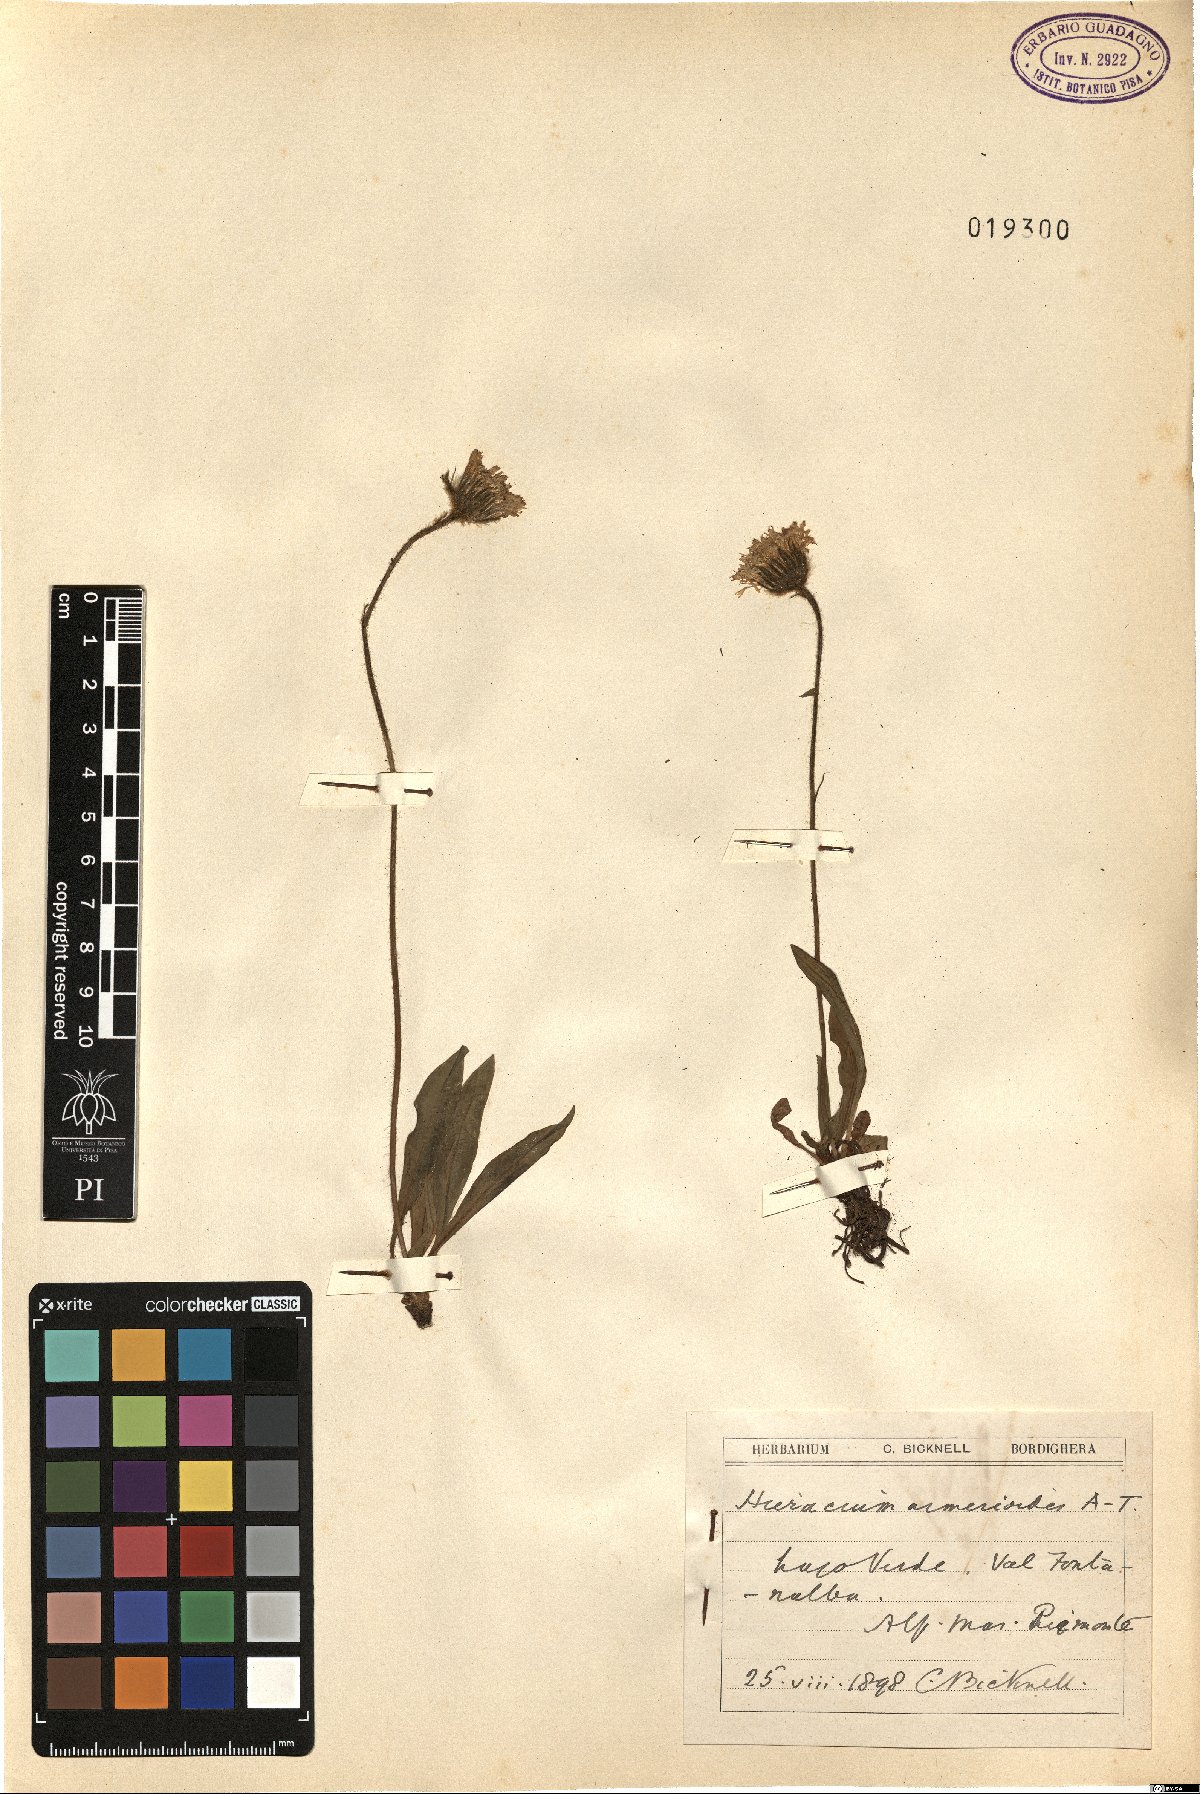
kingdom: Plantae
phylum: Tracheophyta
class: Magnoliopsida
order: Asterales
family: Asteraceae
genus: Hieracium
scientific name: Hieracium armerioides
